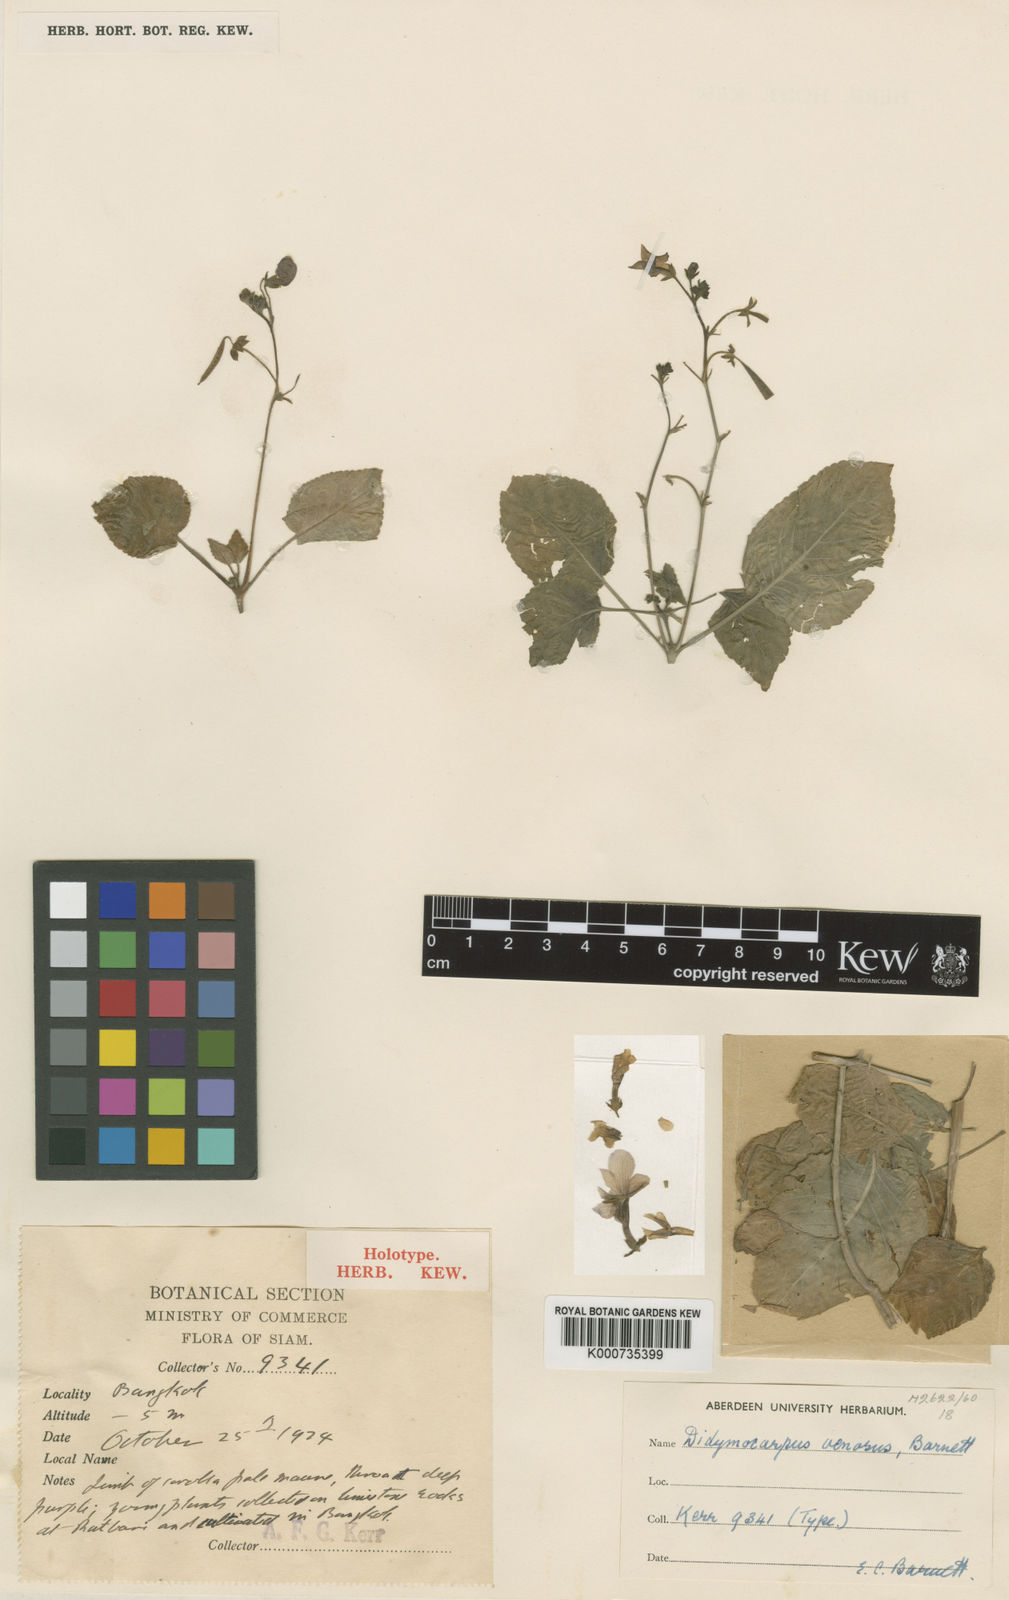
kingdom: Plantae
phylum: Tracheophyta
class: Magnoliopsida
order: Lamiales
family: Gesneriaceae
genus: Tribounia
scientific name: Tribounia venosa
